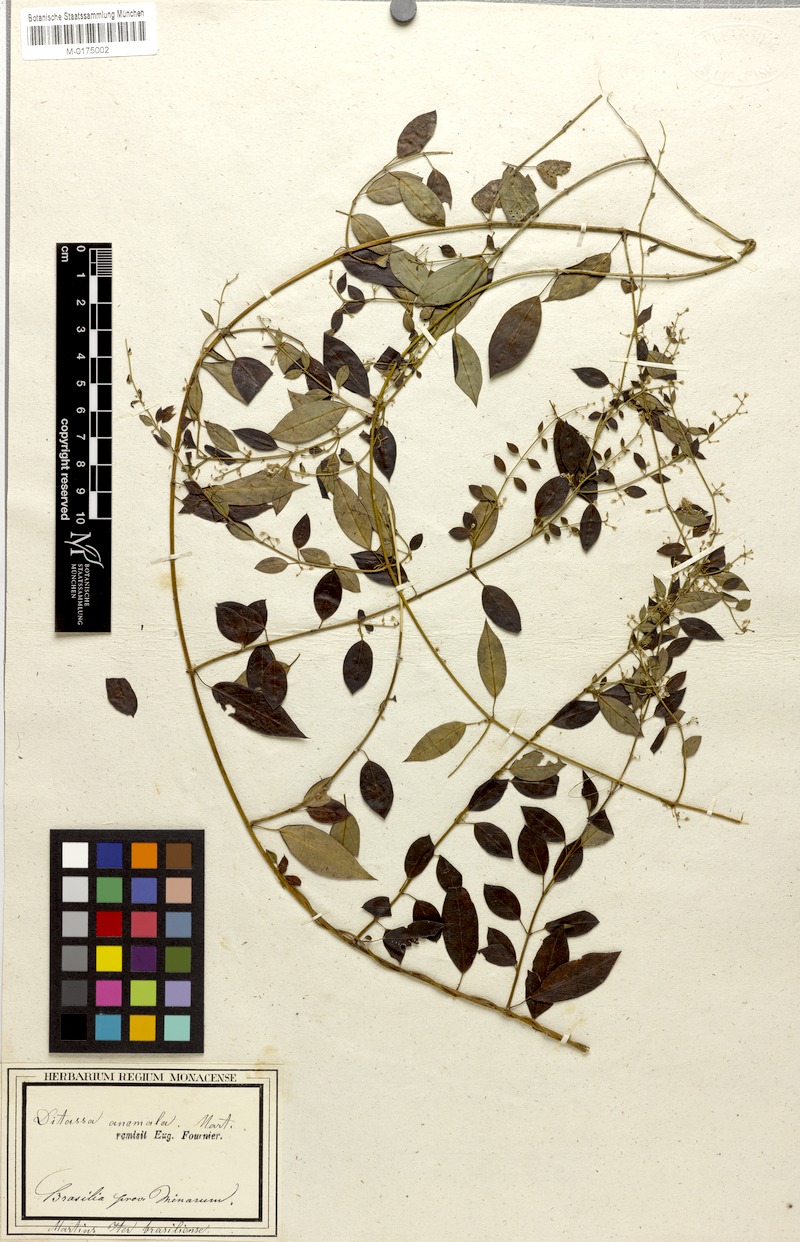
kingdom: Plantae
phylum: Tracheophyta
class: Magnoliopsida
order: Gentianales
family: Apocynaceae
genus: Metastelma
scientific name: Metastelma burchellii
